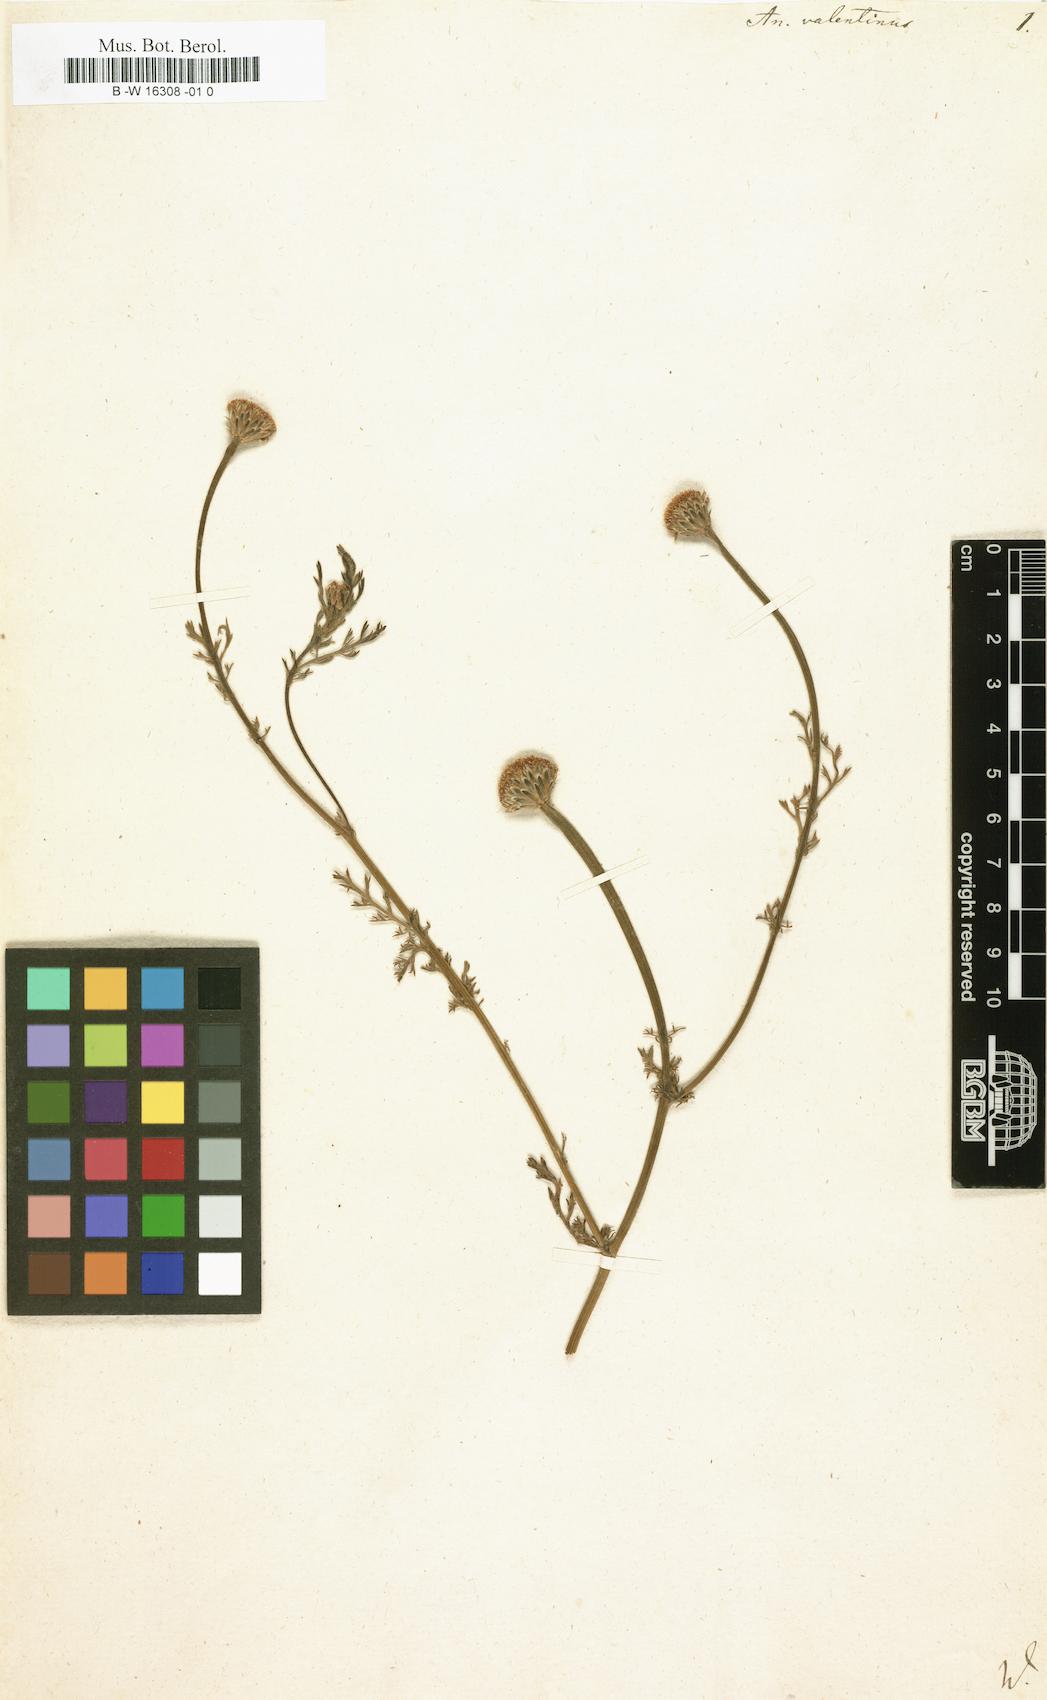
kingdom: Plantae
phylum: Tracheophyta
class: Magnoliopsida
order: Asterales
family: Asteraceae
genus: Anacyclus
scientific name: Anacyclus valentinus
